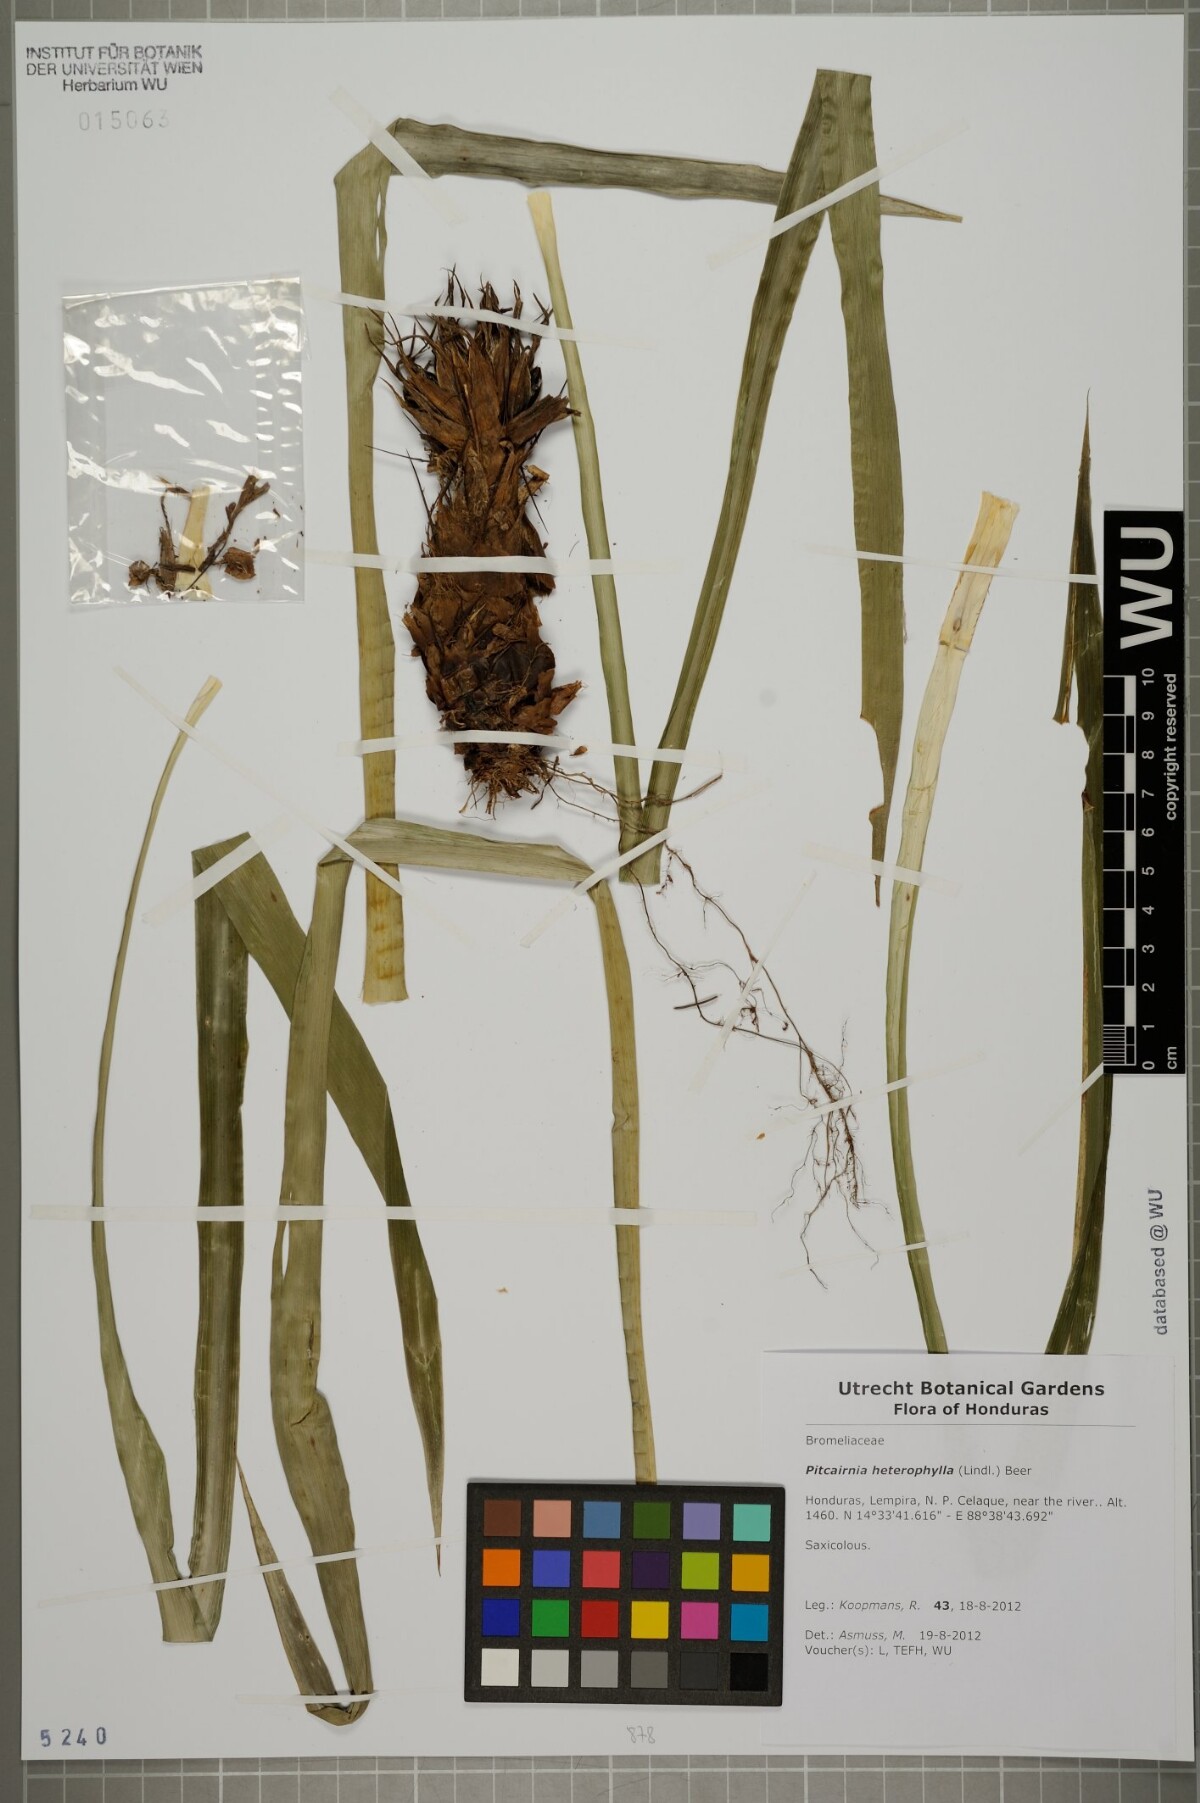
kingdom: Plantae
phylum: Tracheophyta
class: Liliopsida
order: Poales
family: Bromeliaceae
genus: Pitcairnia
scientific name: Pitcairnia heterophylla
